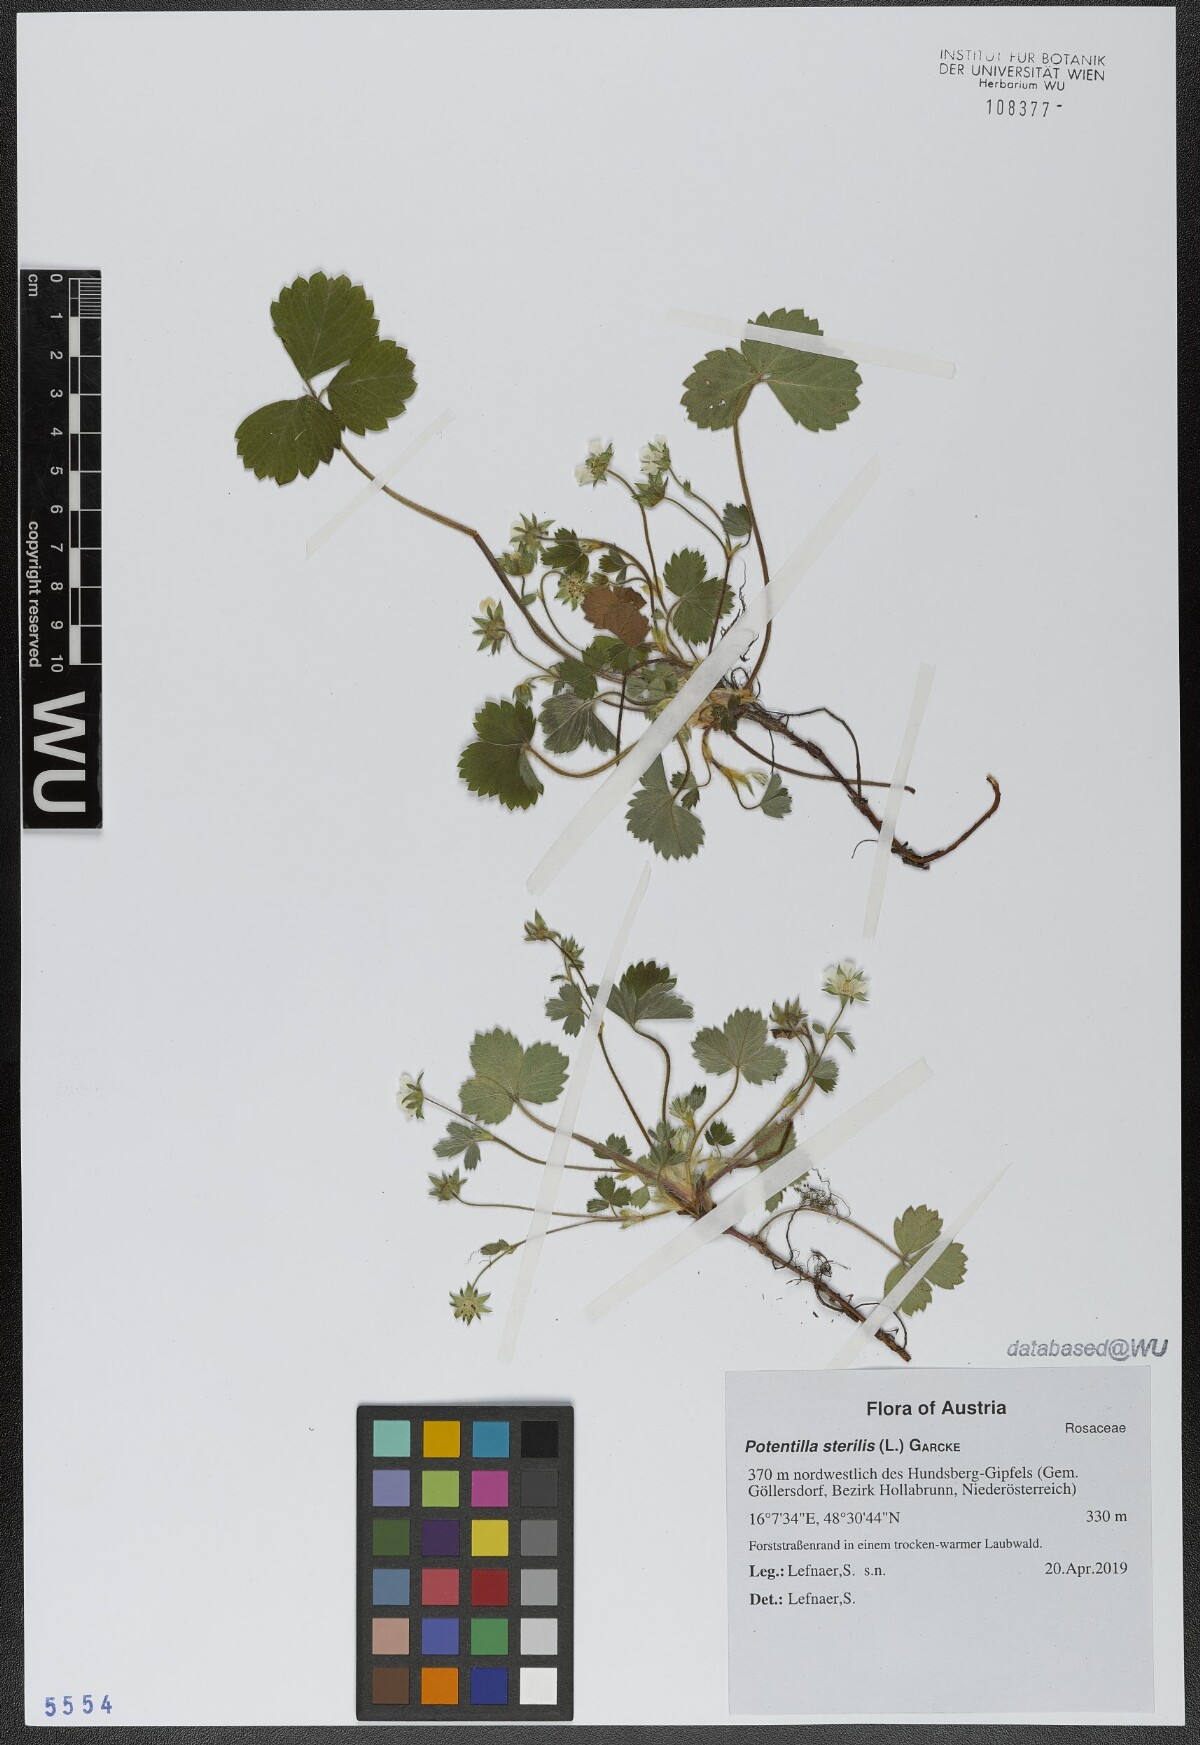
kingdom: Plantae
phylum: Tracheophyta
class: Magnoliopsida
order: Rosales
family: Rosaceae
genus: Potentilla
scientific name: Potentilla sterilis
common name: Barren strawberry
